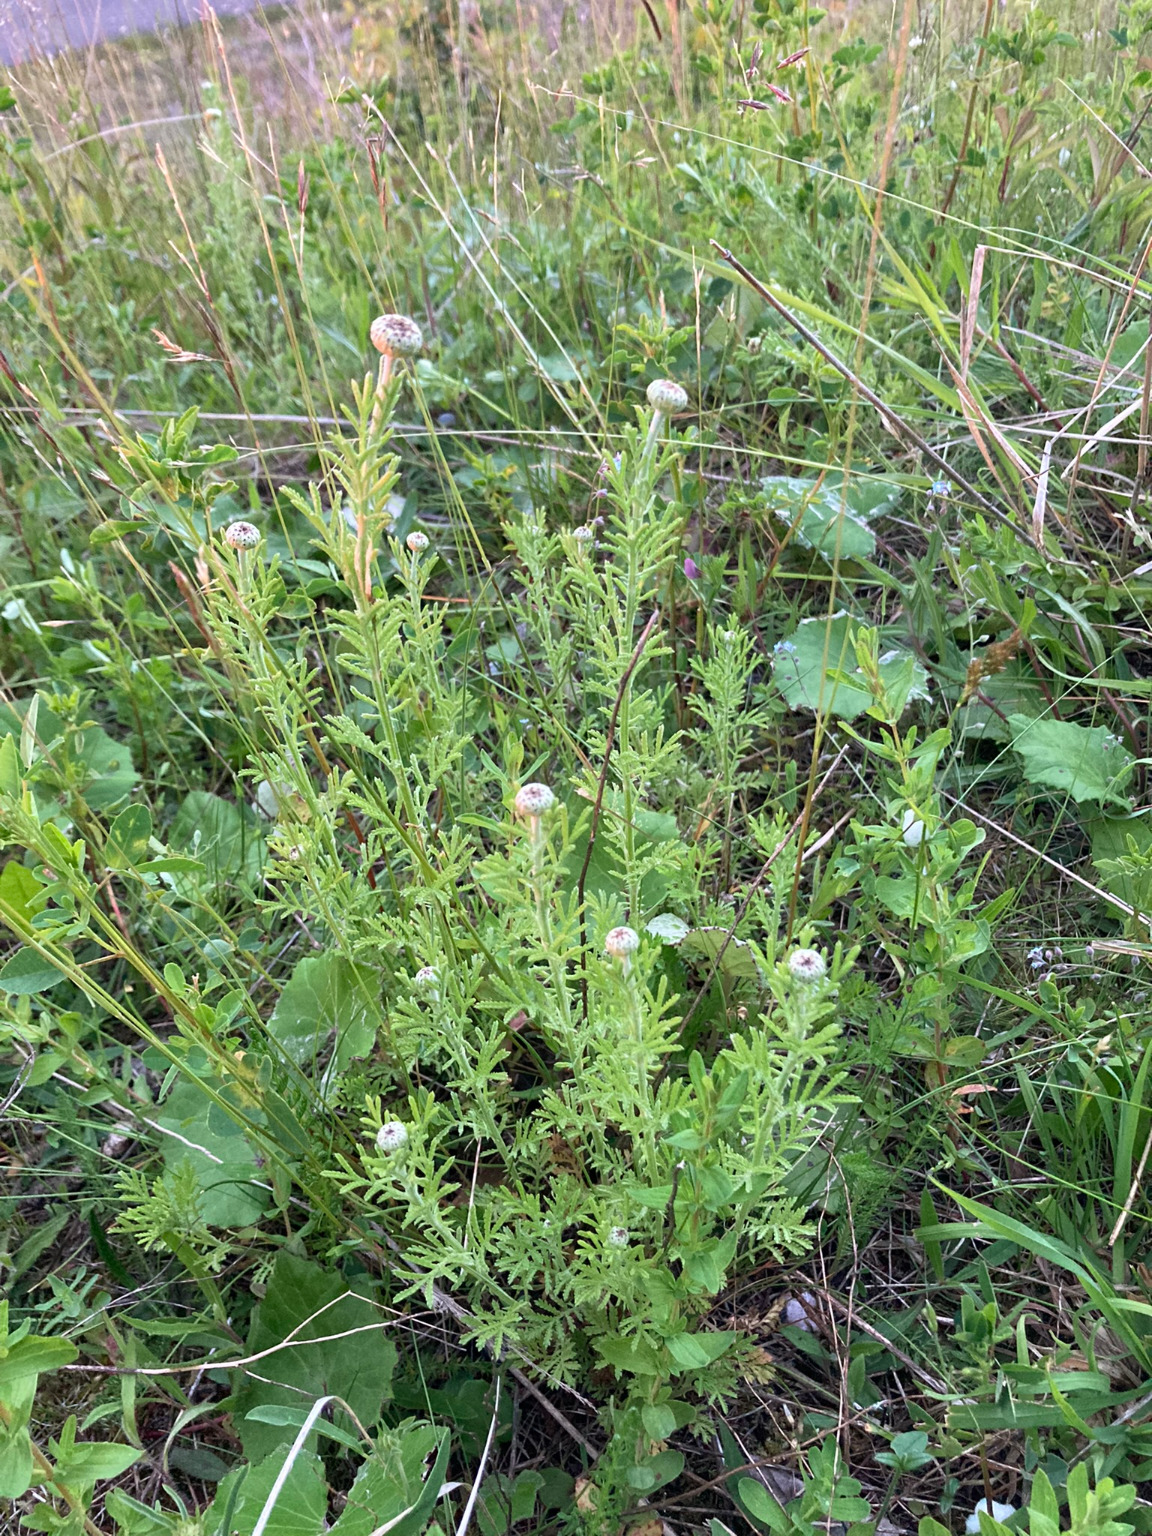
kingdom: Plantae
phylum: Tracheophyta
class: Magnoliopsida
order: Asterales
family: Asteraceae
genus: Cota
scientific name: Cota tinctoria
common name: Farve-gåseurt
